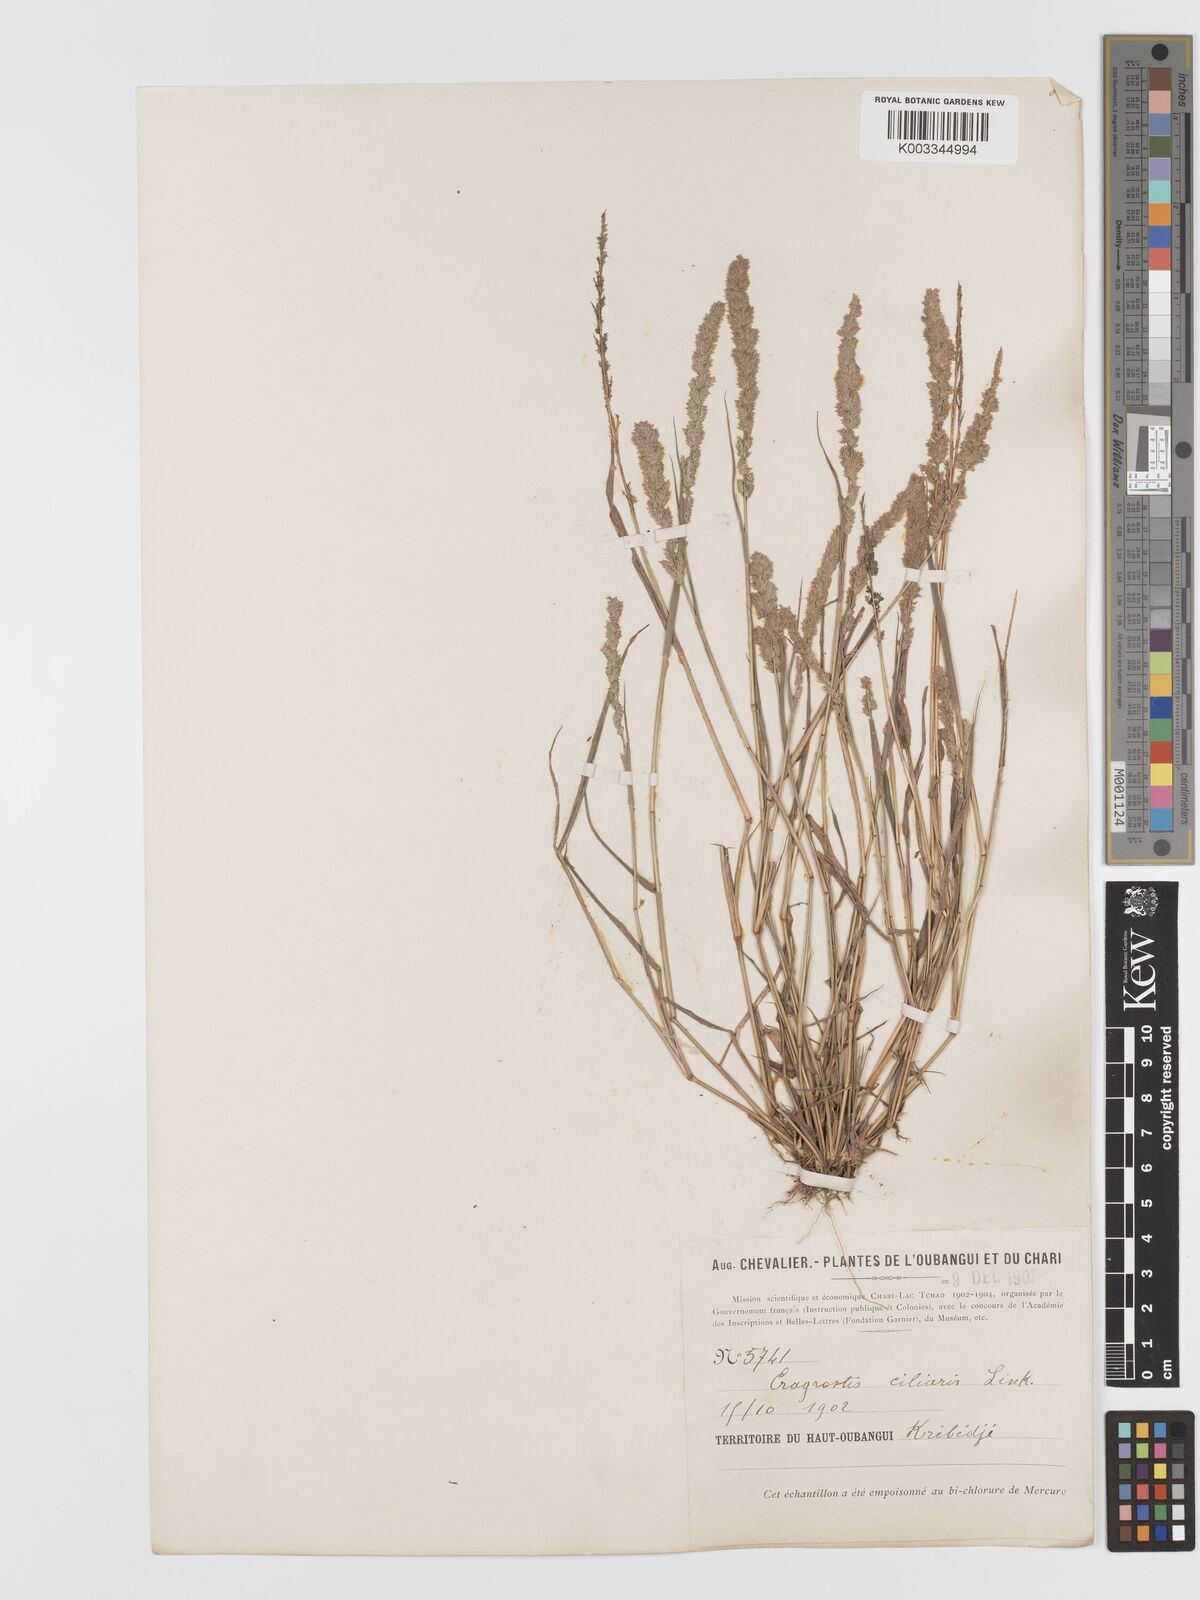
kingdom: Plantae
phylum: Tracheophyta
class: Liliopsida
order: Poales
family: Poaceae
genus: Eragrostis
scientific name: Eragrostis ciliaris
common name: Gophertail lovegrass
